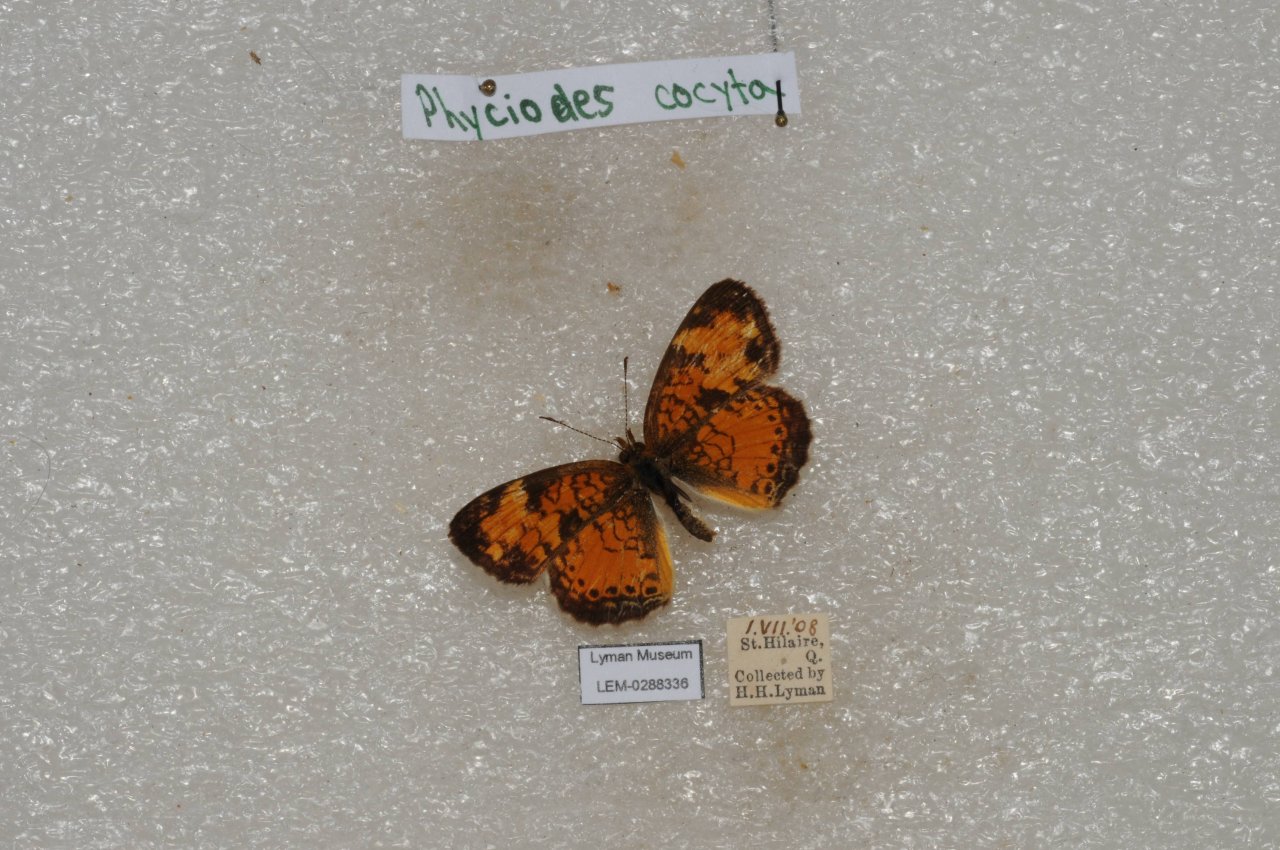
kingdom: Animalia
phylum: Arthropoda
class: Insecta
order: Lepidoptera
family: Nymphalidae
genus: Phyciodes
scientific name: Phyciodes tharos
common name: Northern Crescent
